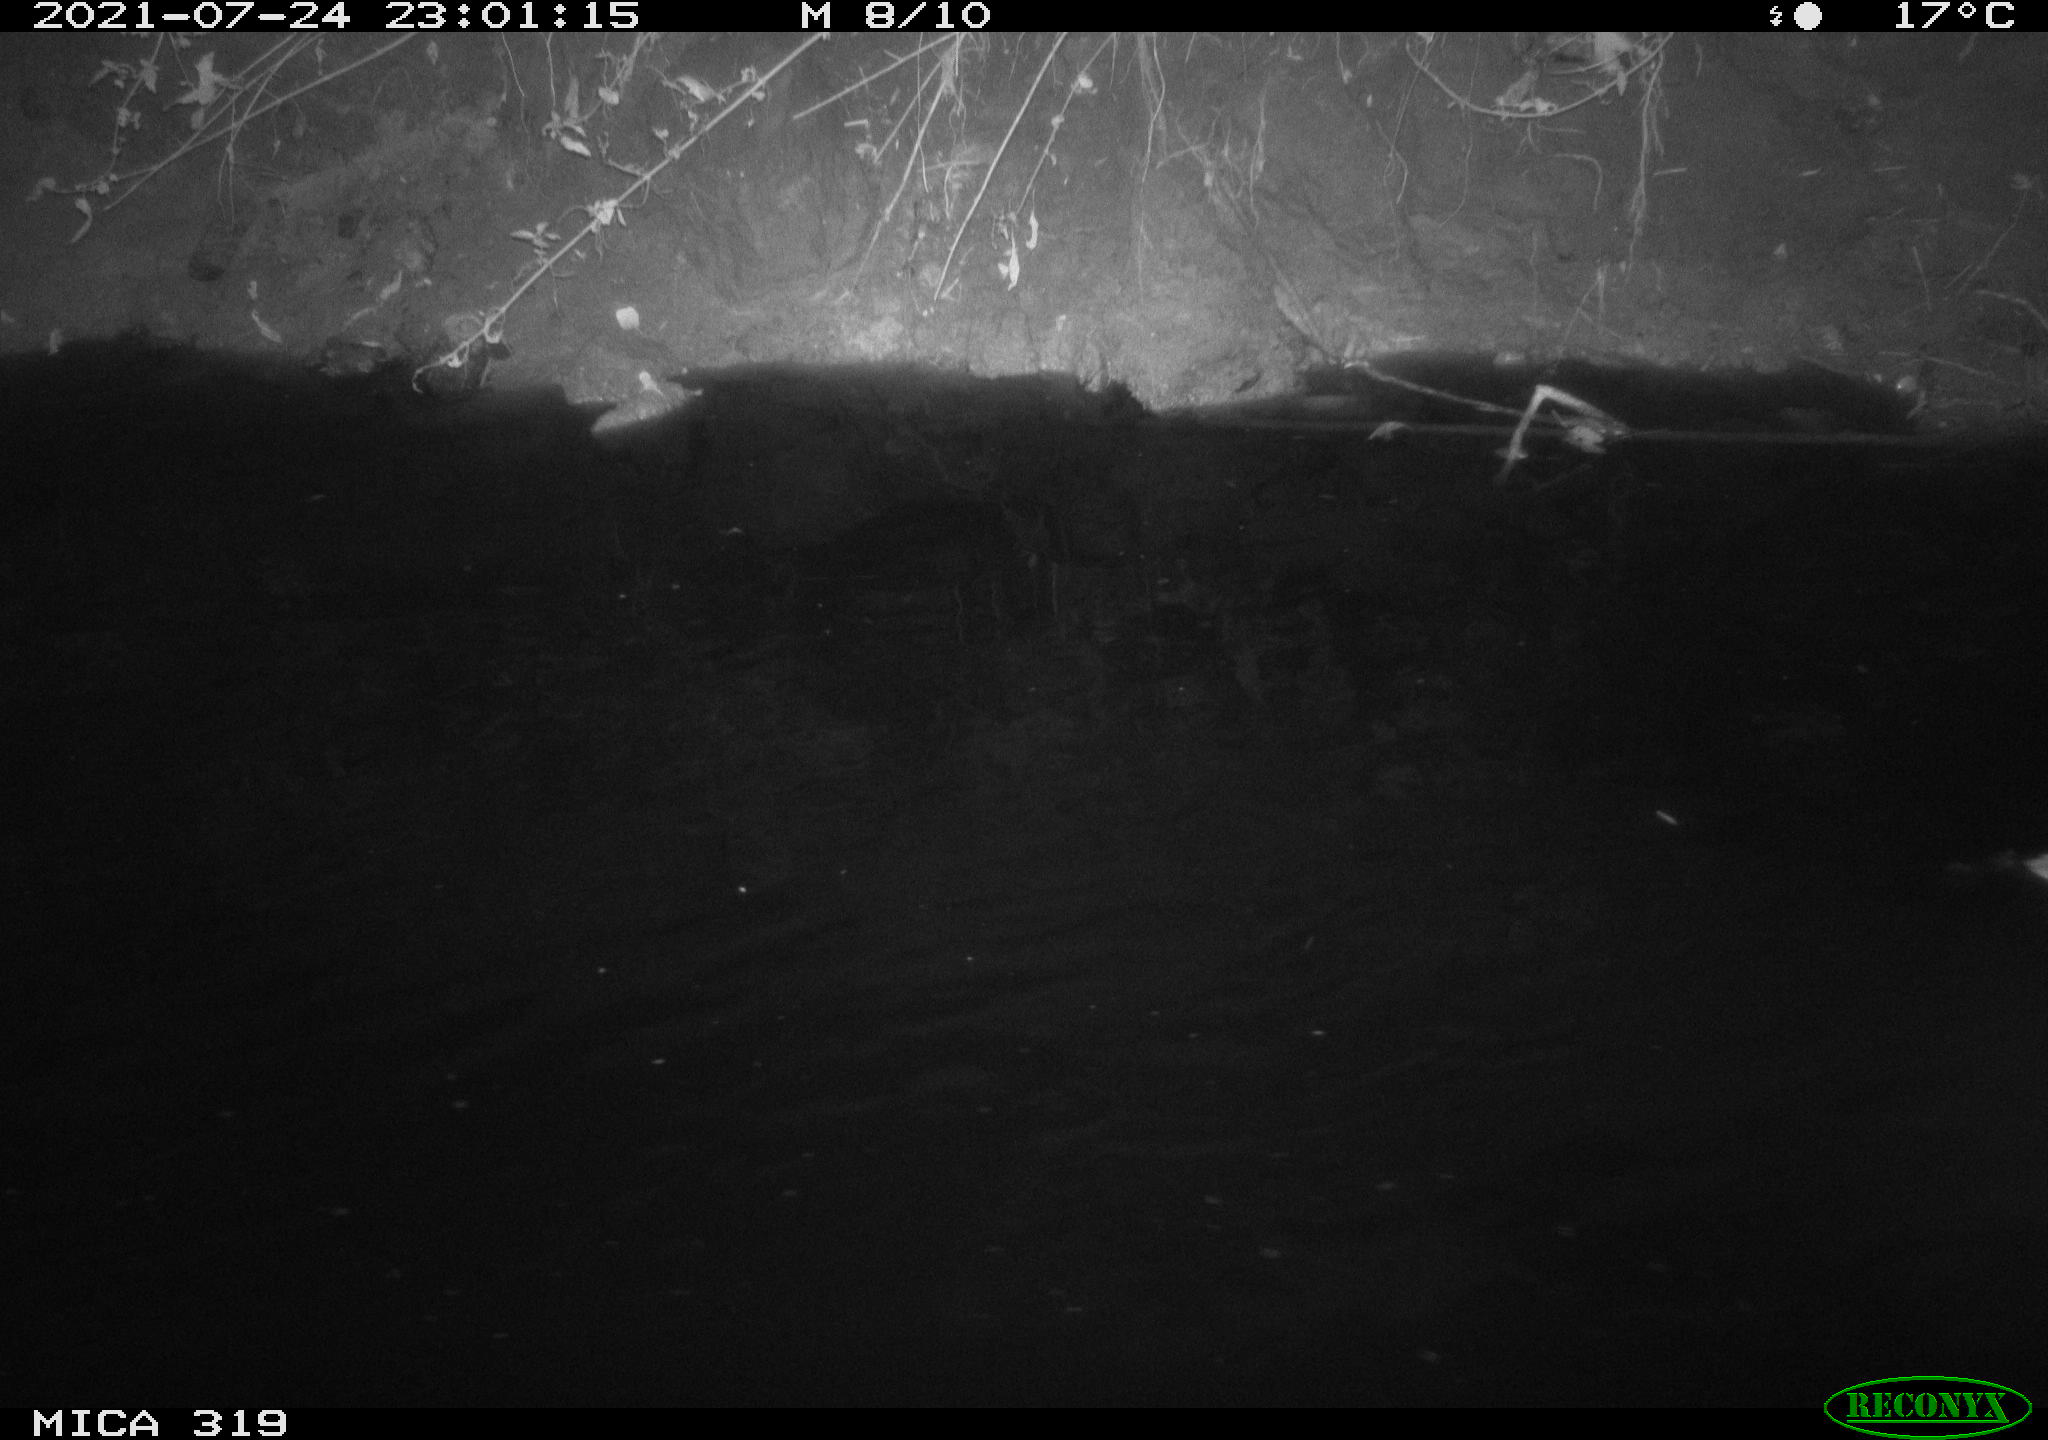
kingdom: Animalia
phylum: Chordata
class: Aves
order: Anseriformes
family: Anatidae
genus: Anas
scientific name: Anas platyrhynchos
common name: Mallard
